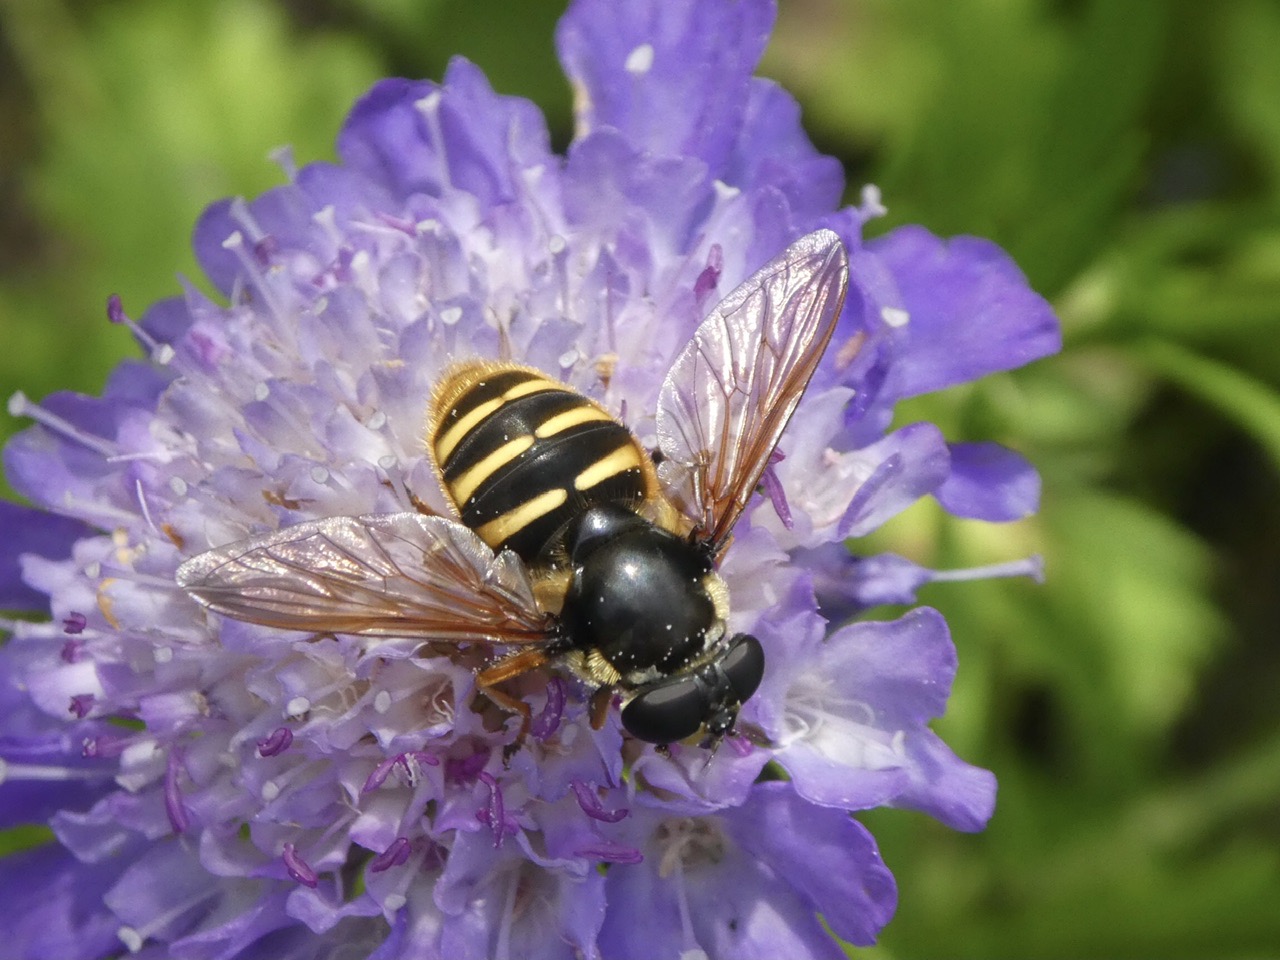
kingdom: Animalia
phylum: Arthropoda
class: Insecta
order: Diptera
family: Syrphidae
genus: Sericomyia
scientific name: Sericomyia silentis
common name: Tørve-silkesvirreflue
